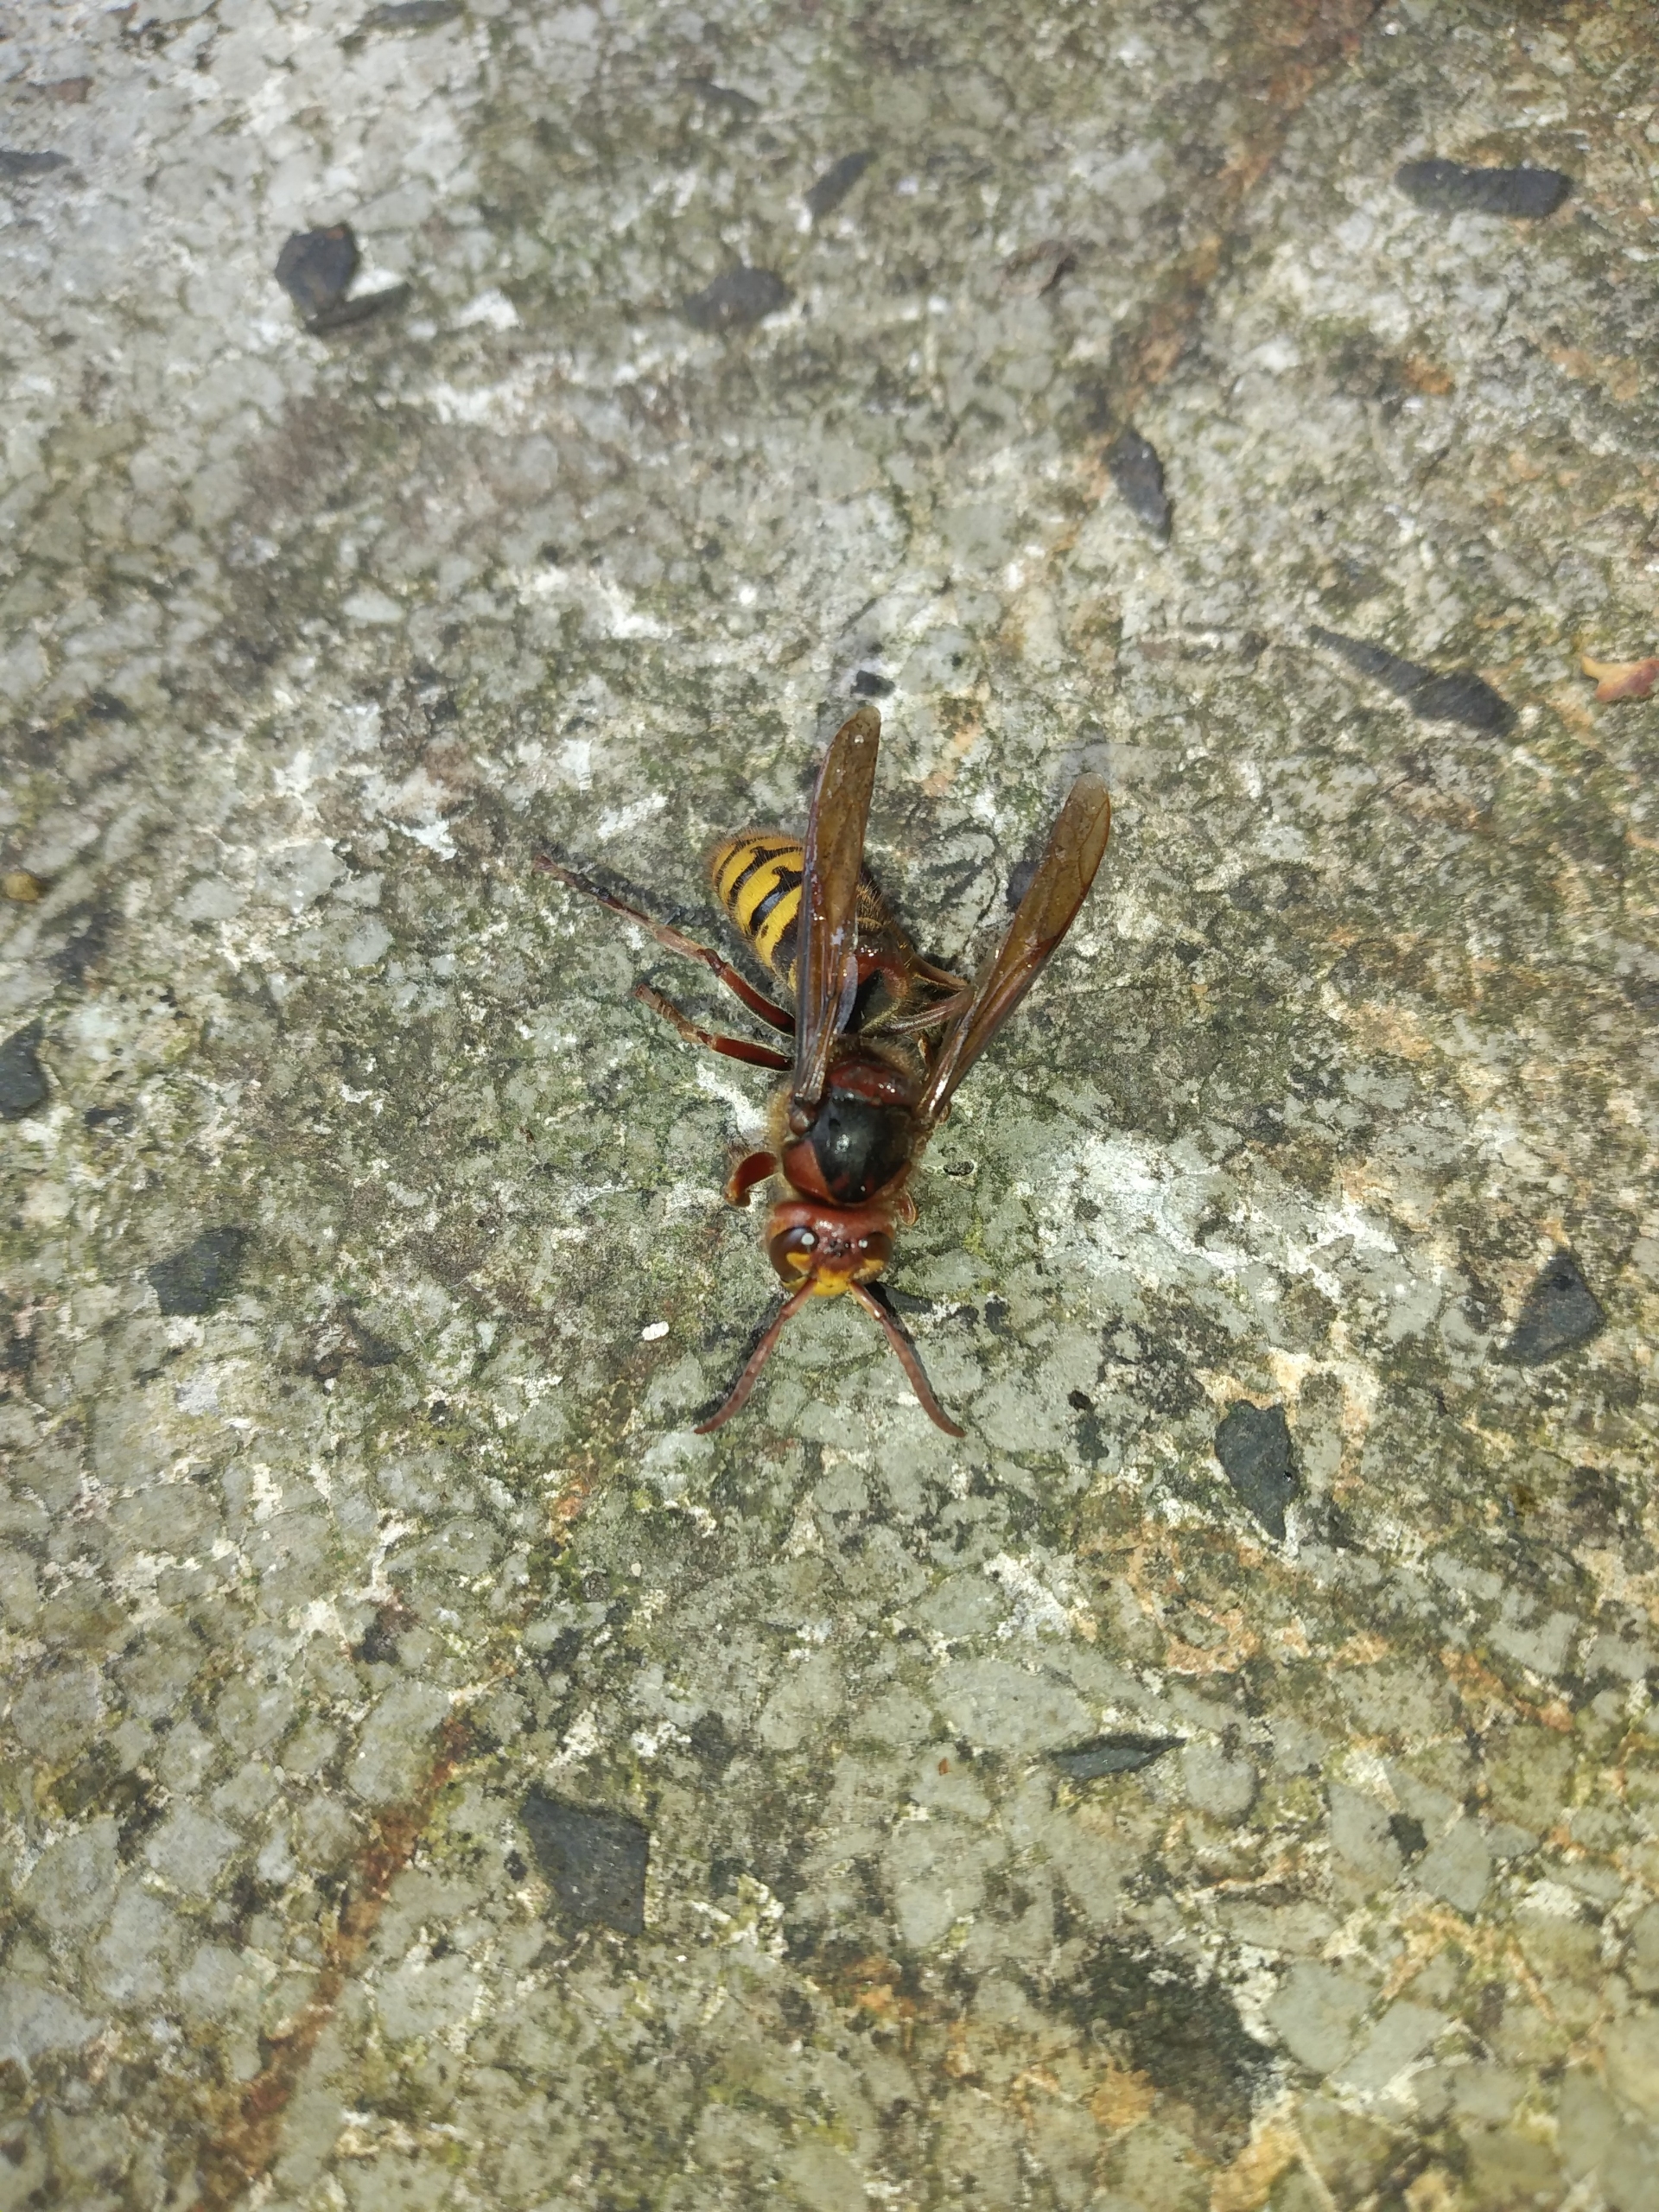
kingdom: Animalia
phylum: Arthropoda
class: Insecta
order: Hymenoptera
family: Vespidae
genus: Vespa
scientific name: Vespa crabro
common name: Stor gedehams
